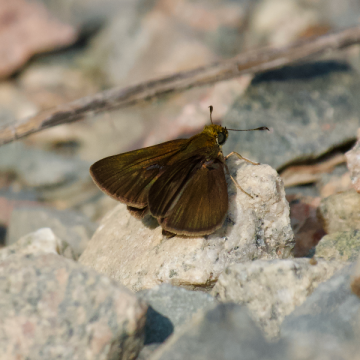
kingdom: Animalia
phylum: Arthropoda
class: Insecta
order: Lepidoptera
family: Hesperiidae
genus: Euphyes
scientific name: Euphyes vestris
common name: Dun Skipper
